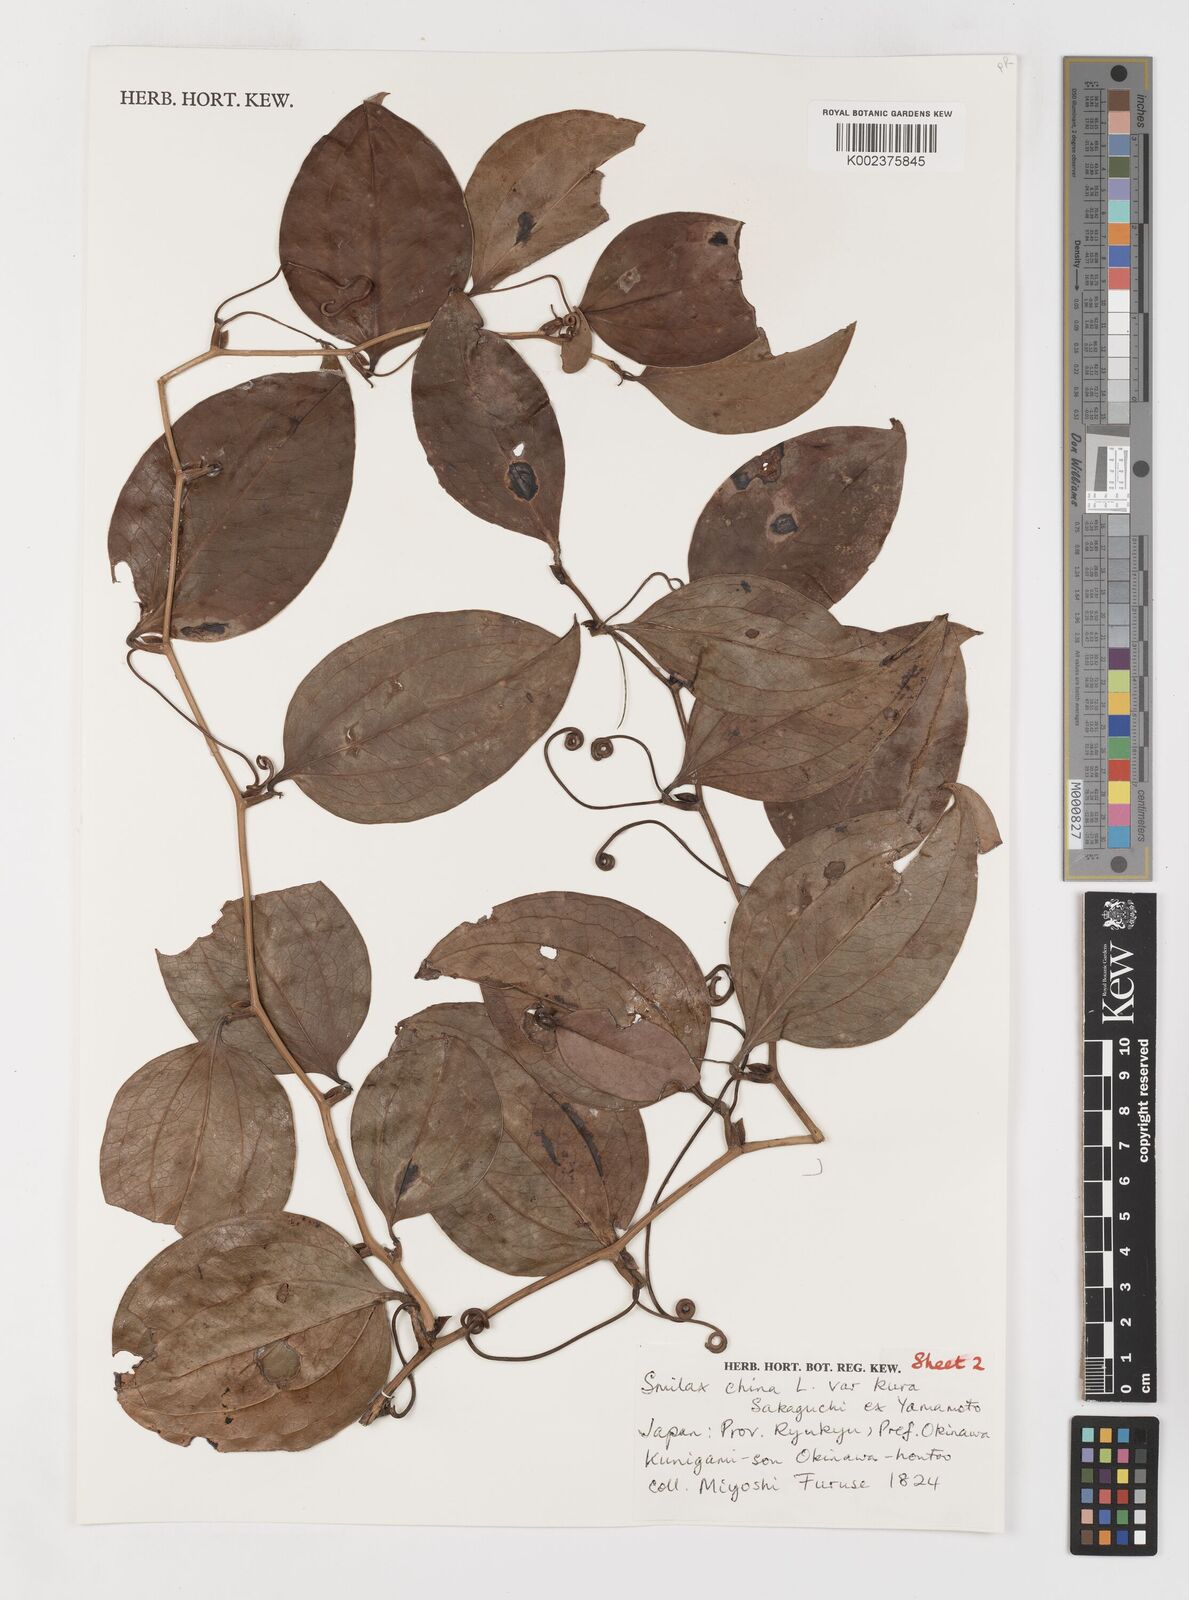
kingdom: Plantae
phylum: Tracheophyta
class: Liliopsida
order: Liliales
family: Smilacaceae
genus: Smilax
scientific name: Smilax china
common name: Chinaroot
